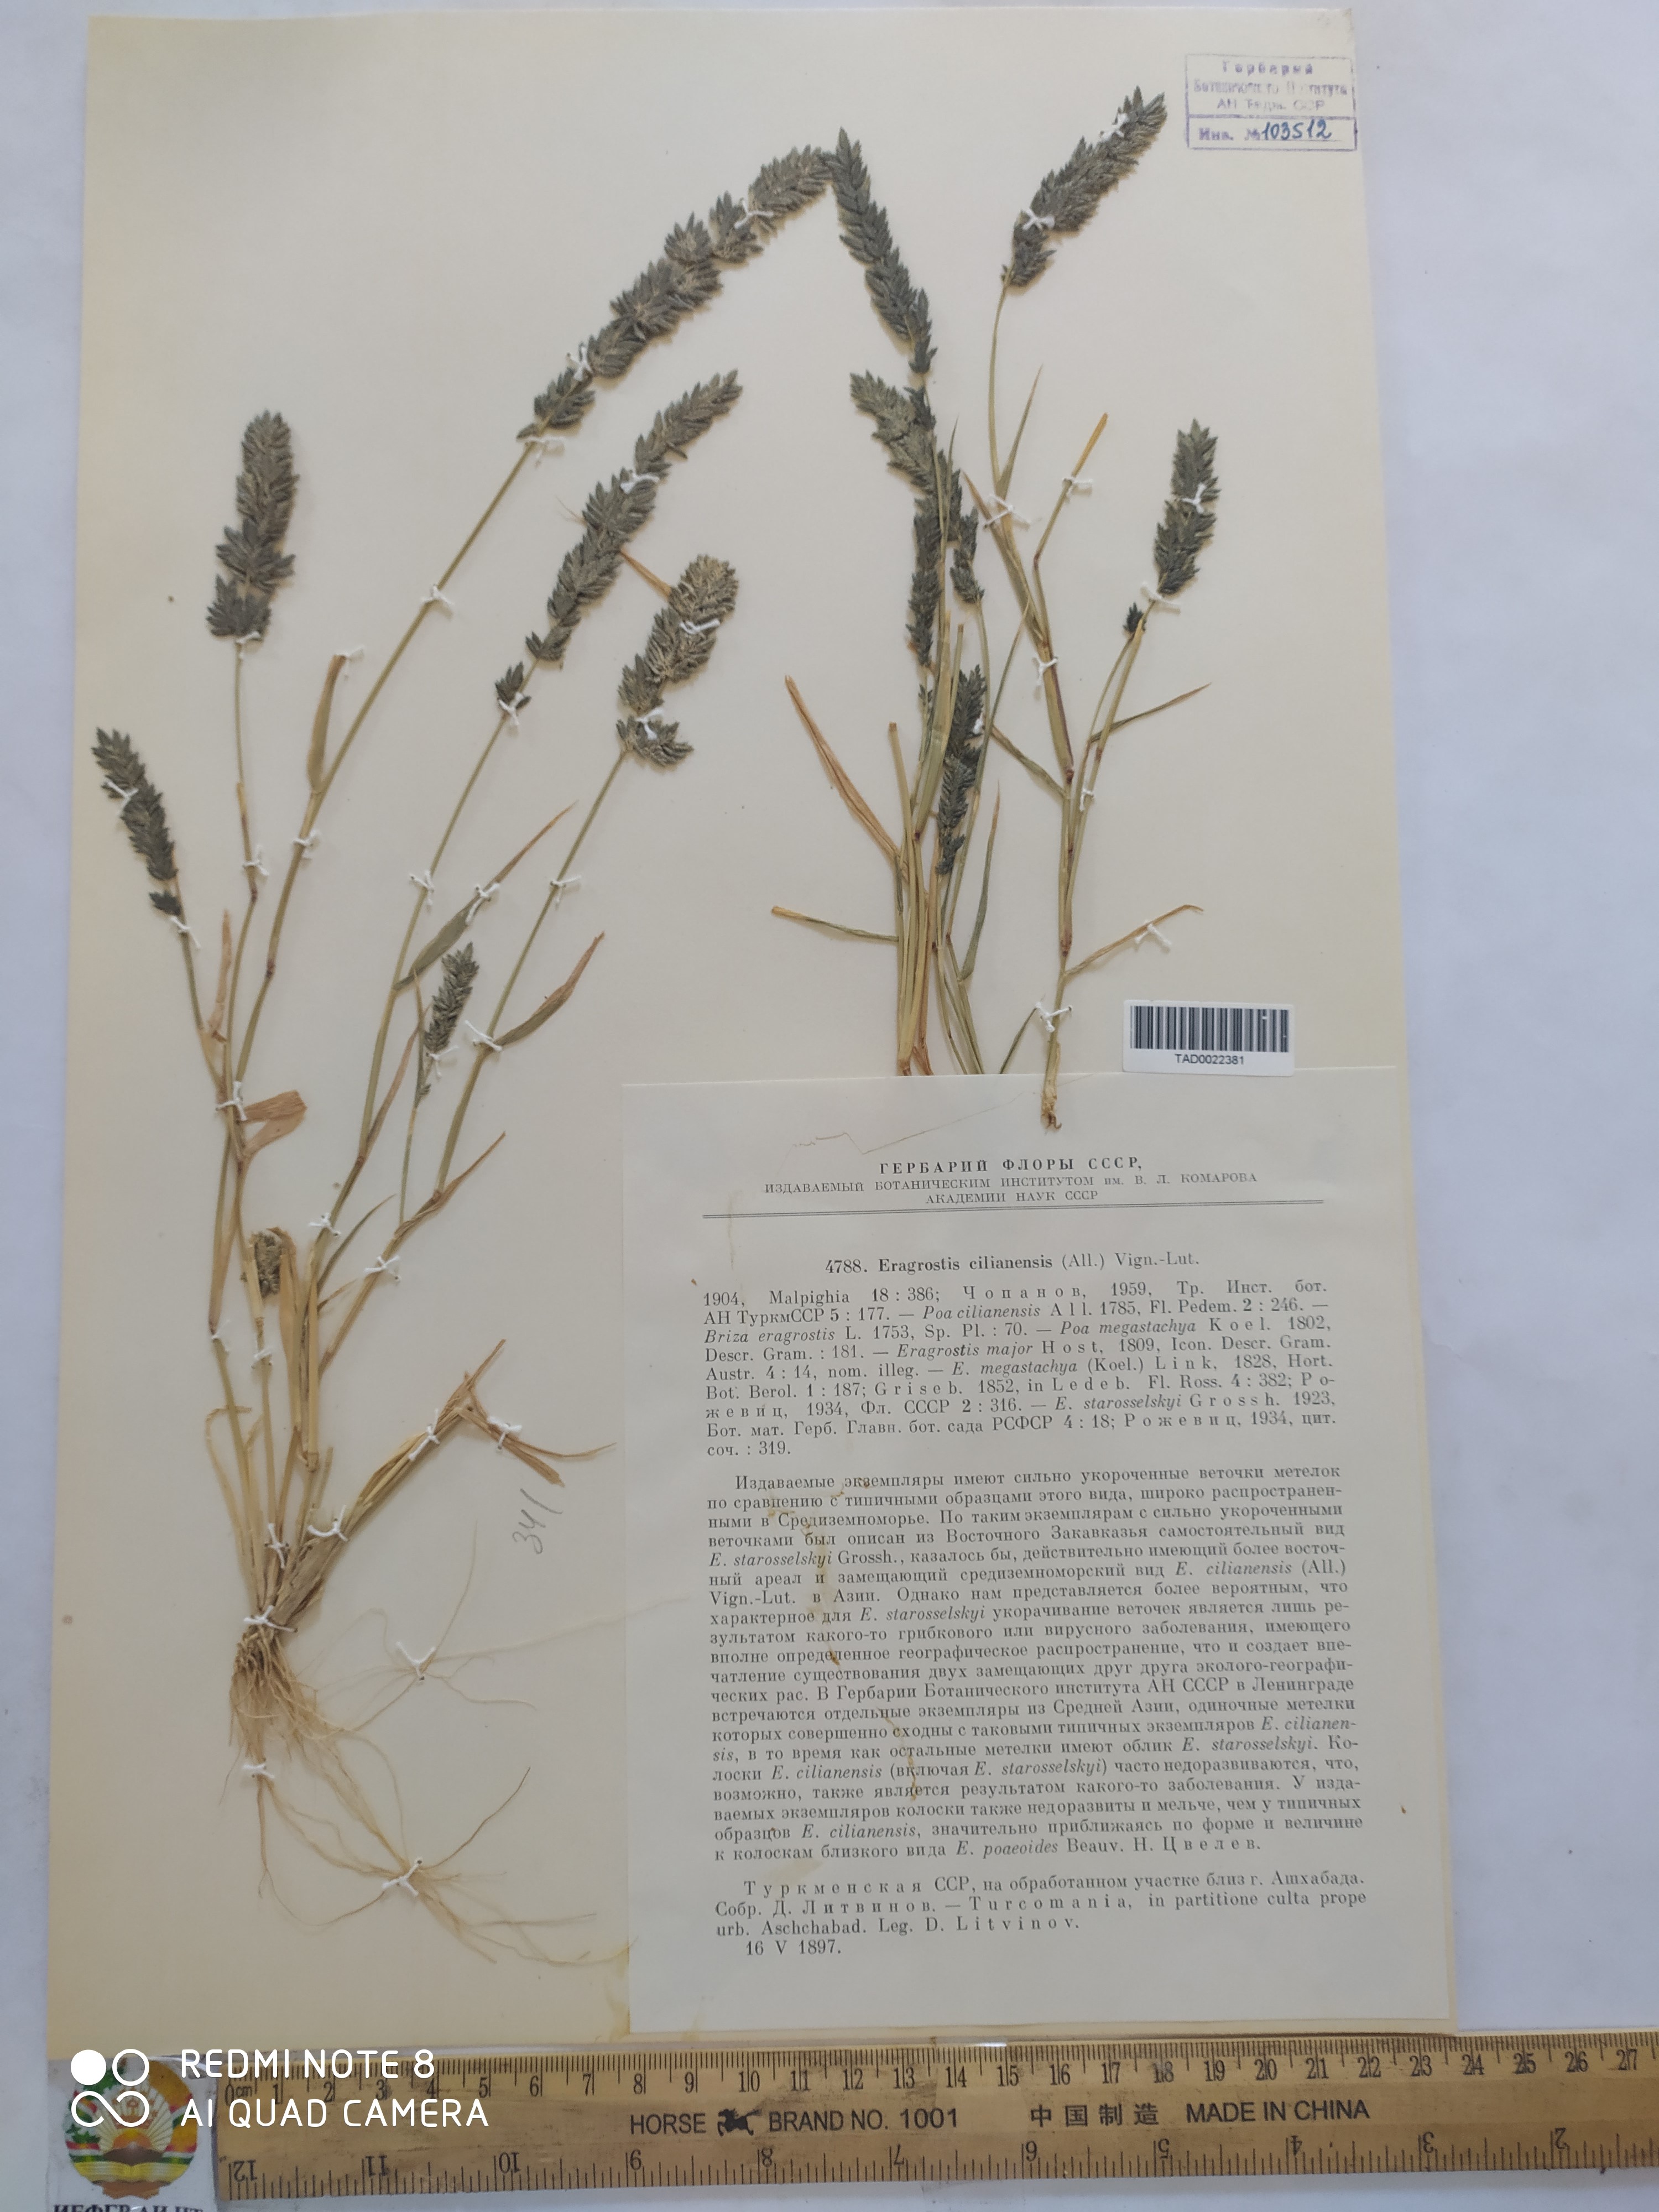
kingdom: Plantae
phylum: Tracheophyta
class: Liliopsida
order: Poales
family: Poaceae
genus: Eragrostis
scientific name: Eragrostis
